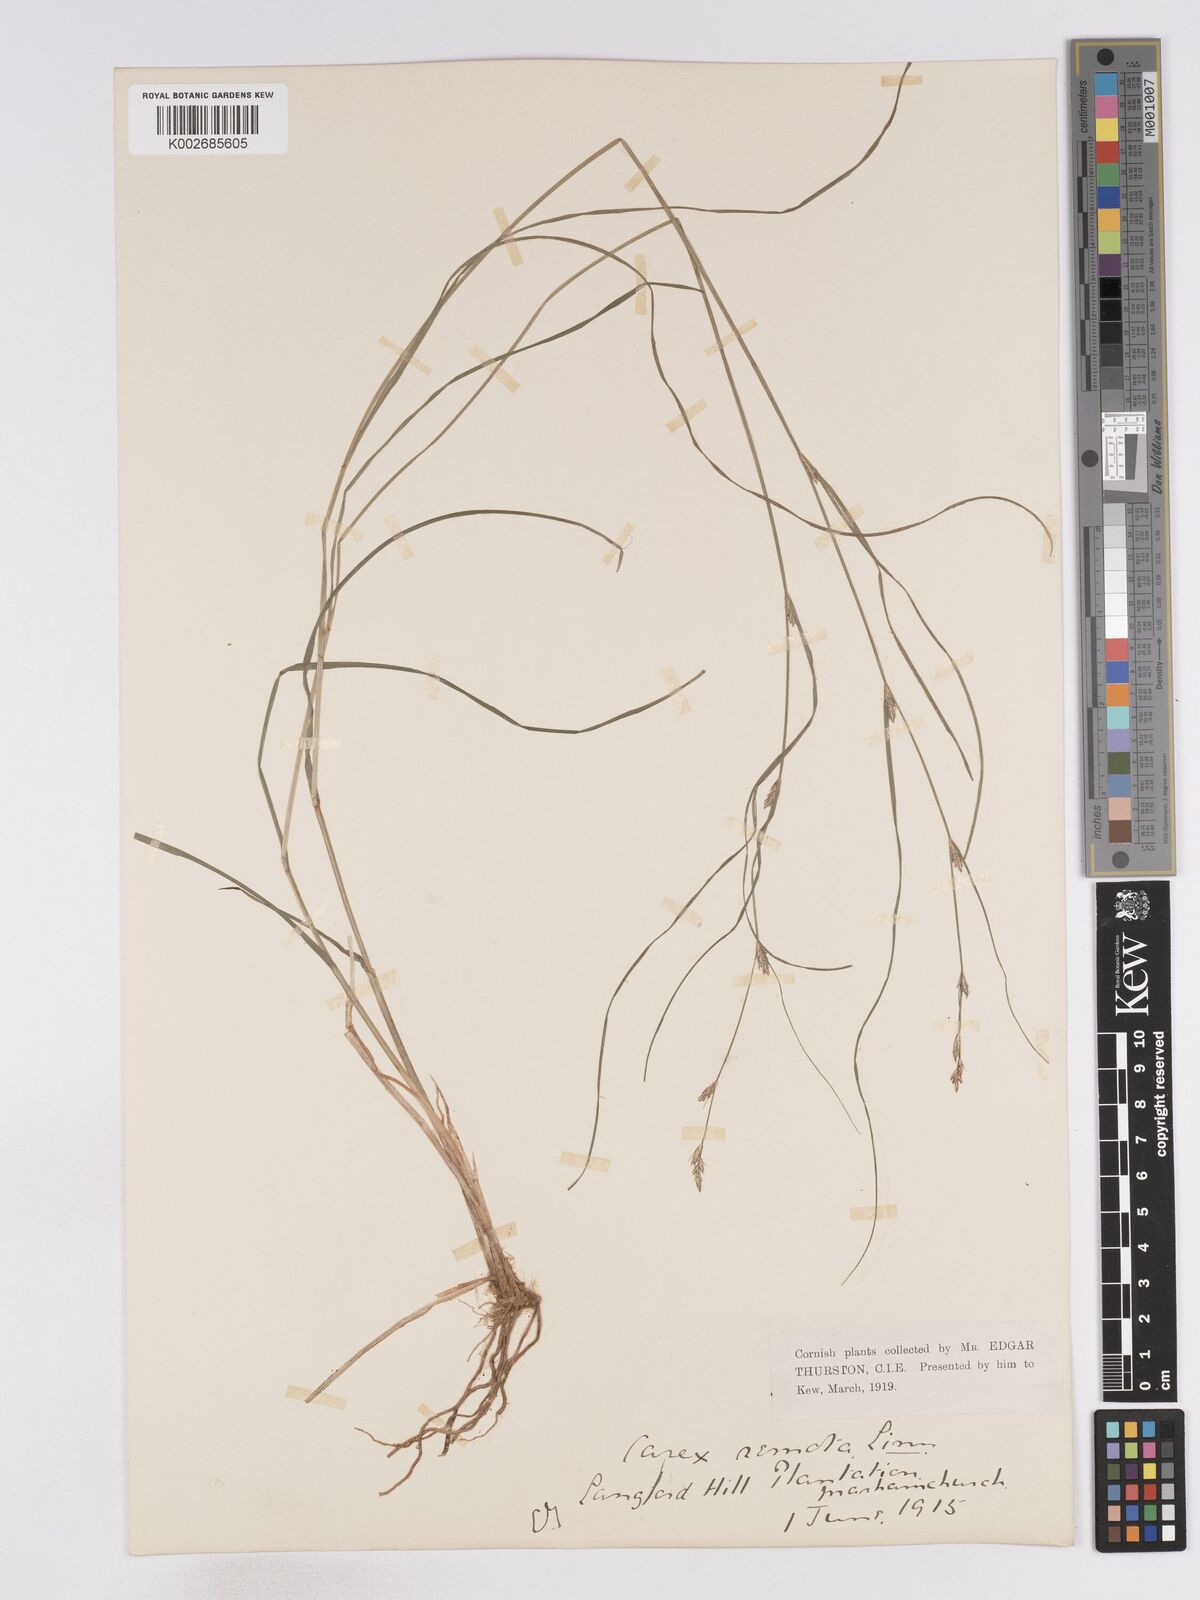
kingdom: Plantae
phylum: Tracheophyta
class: Liliopsida
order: Poales
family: Cyperaceae
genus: Carex
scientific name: Carex remota
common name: Remote sedge
